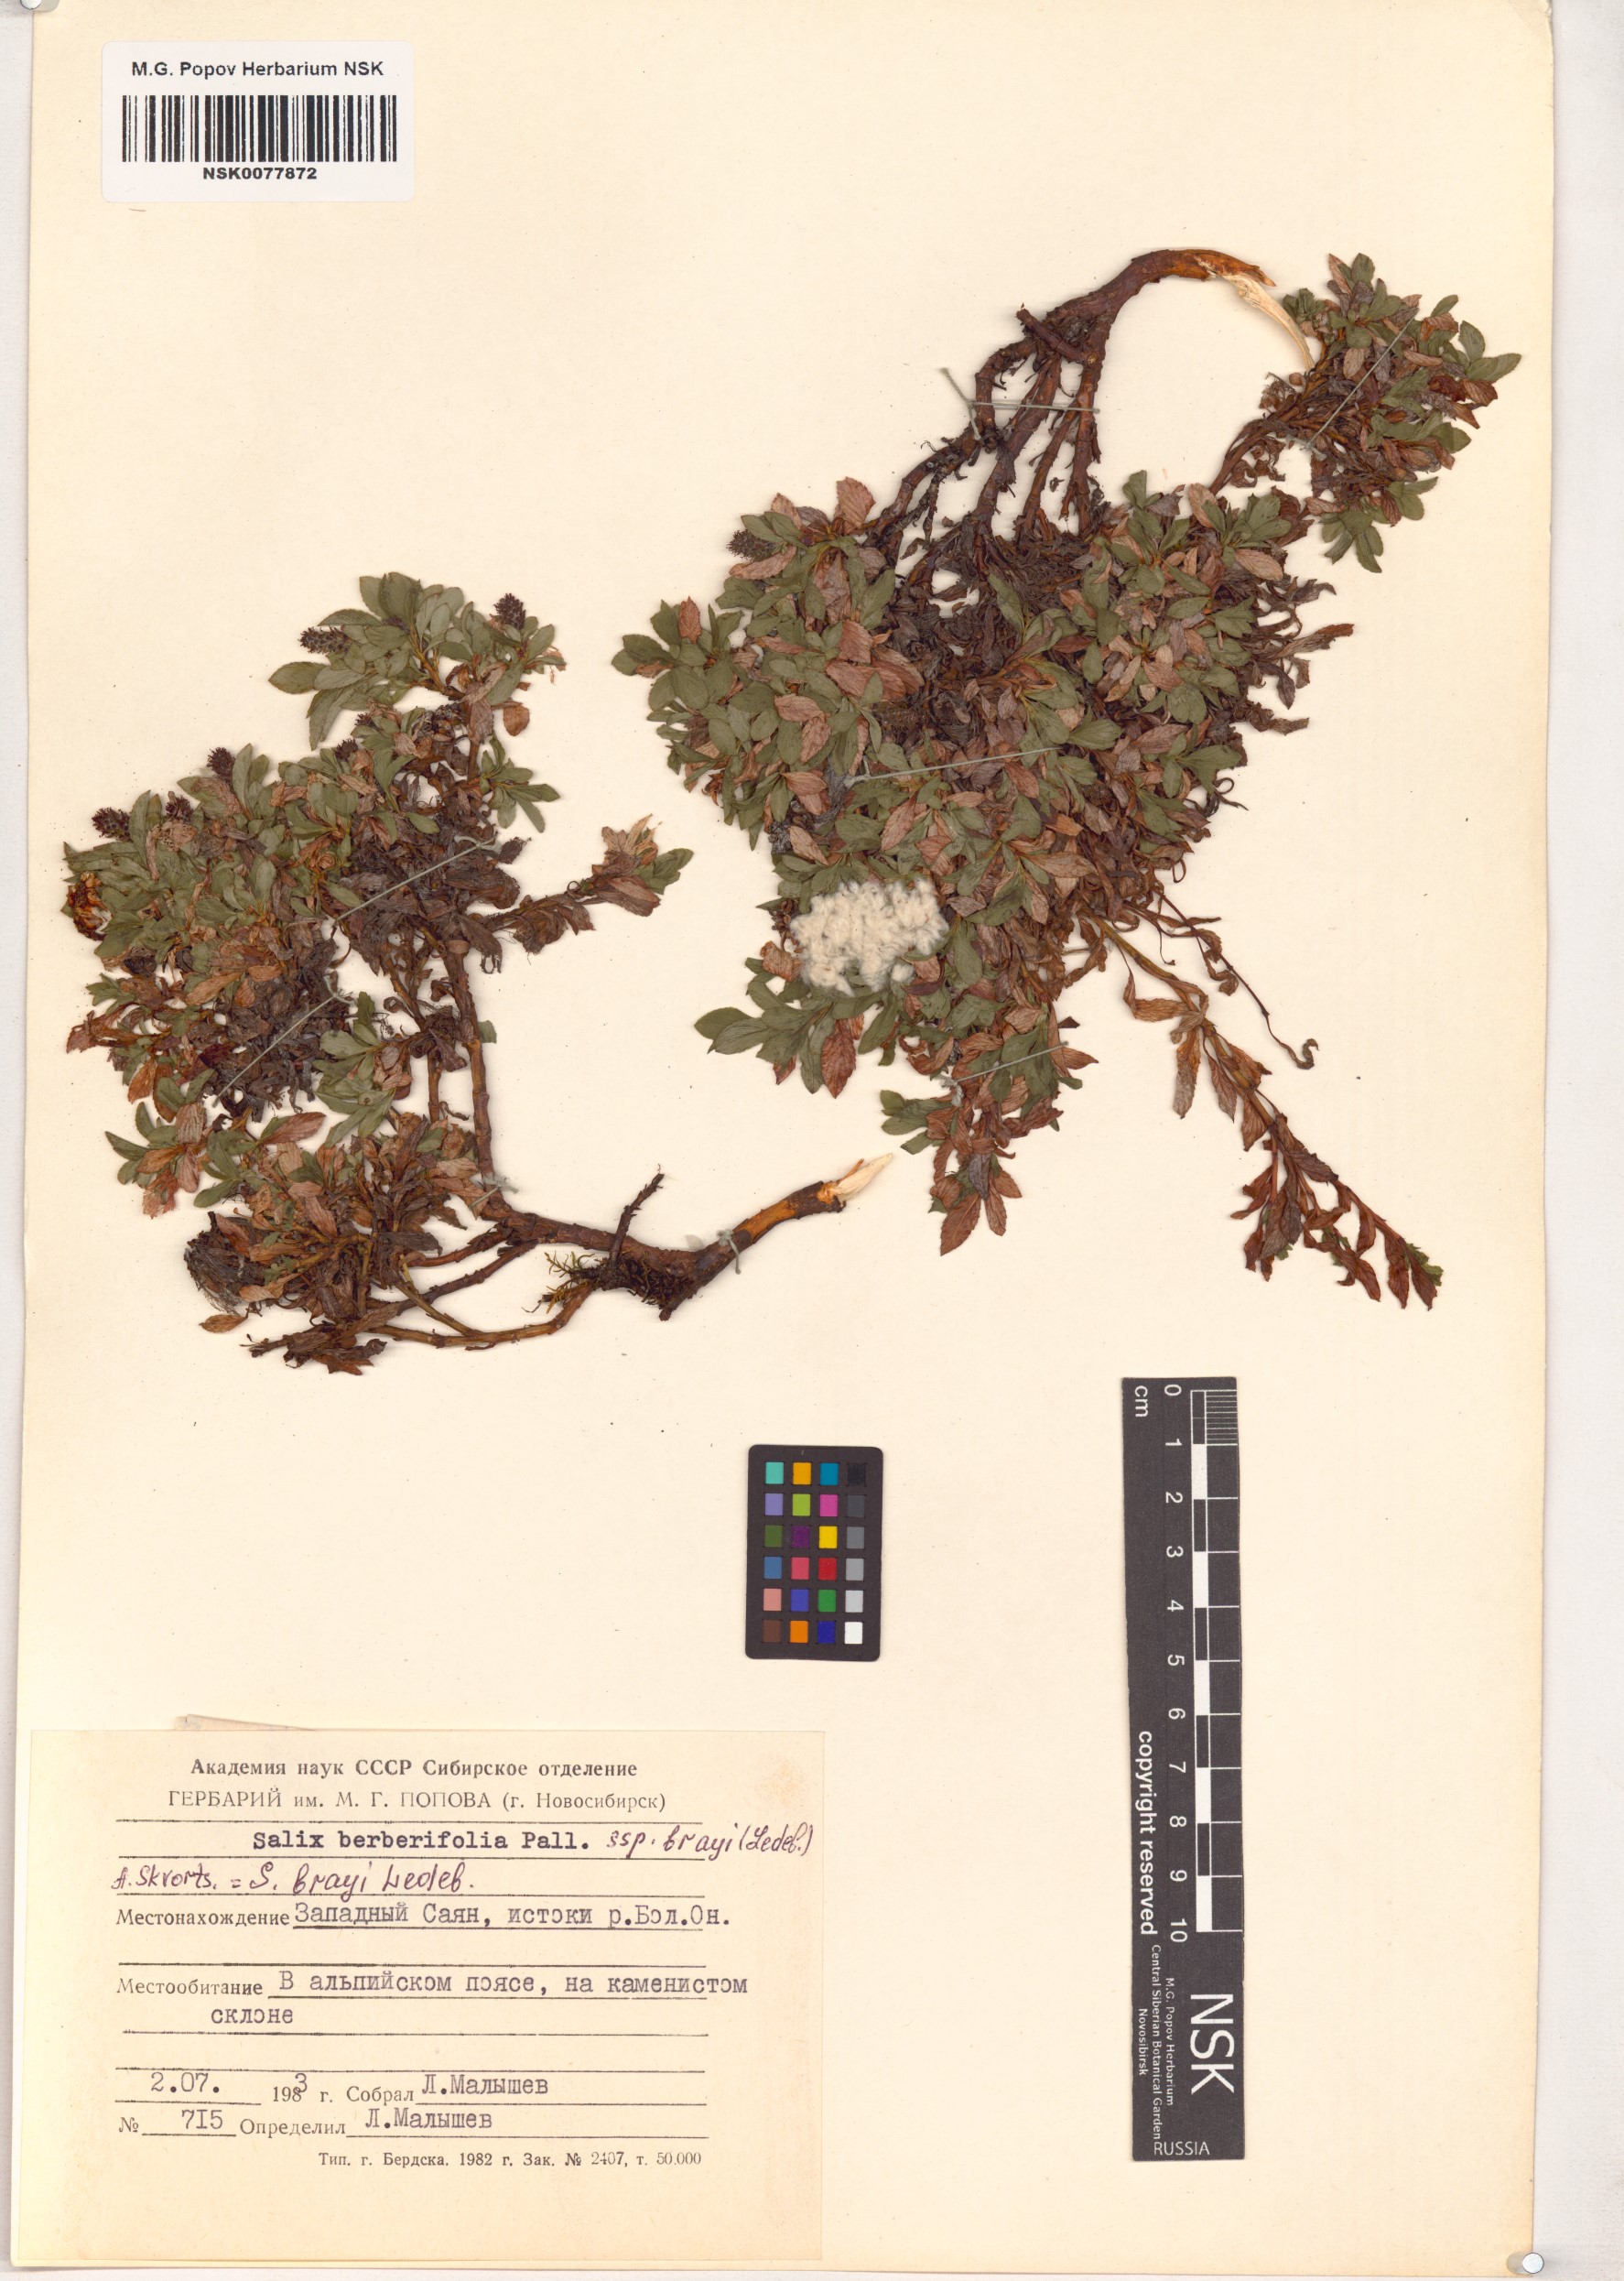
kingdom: Plantae
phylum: Tracheophyta
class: Magnoliopsida
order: Malpighiales
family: Salicaceae
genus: Salix
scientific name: Salix berberifolia
